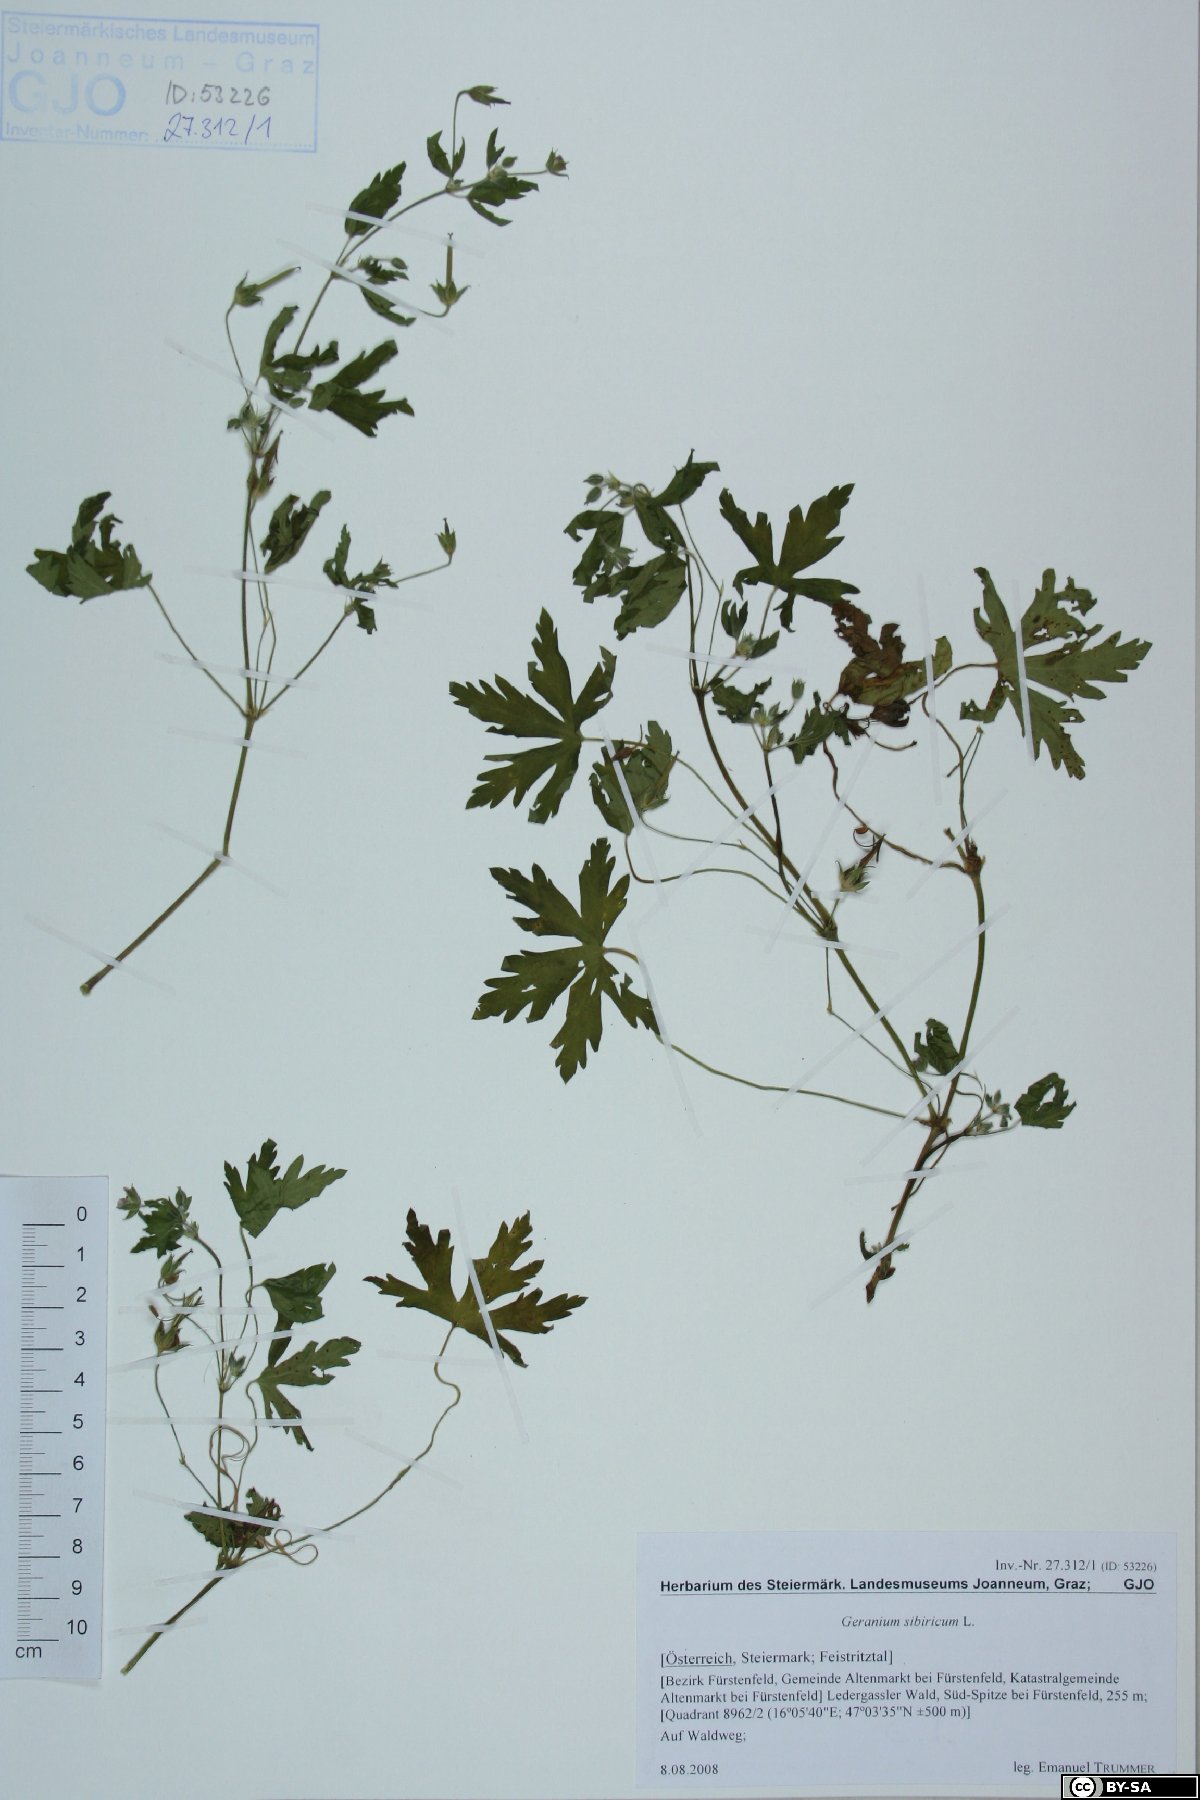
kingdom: Plantae
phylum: Tracheophyta
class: Magnoliopsida
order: Geraniales
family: Geraniaceae
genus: Geranium
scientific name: Geranium sibiricum
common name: Siberian crane's-bill
